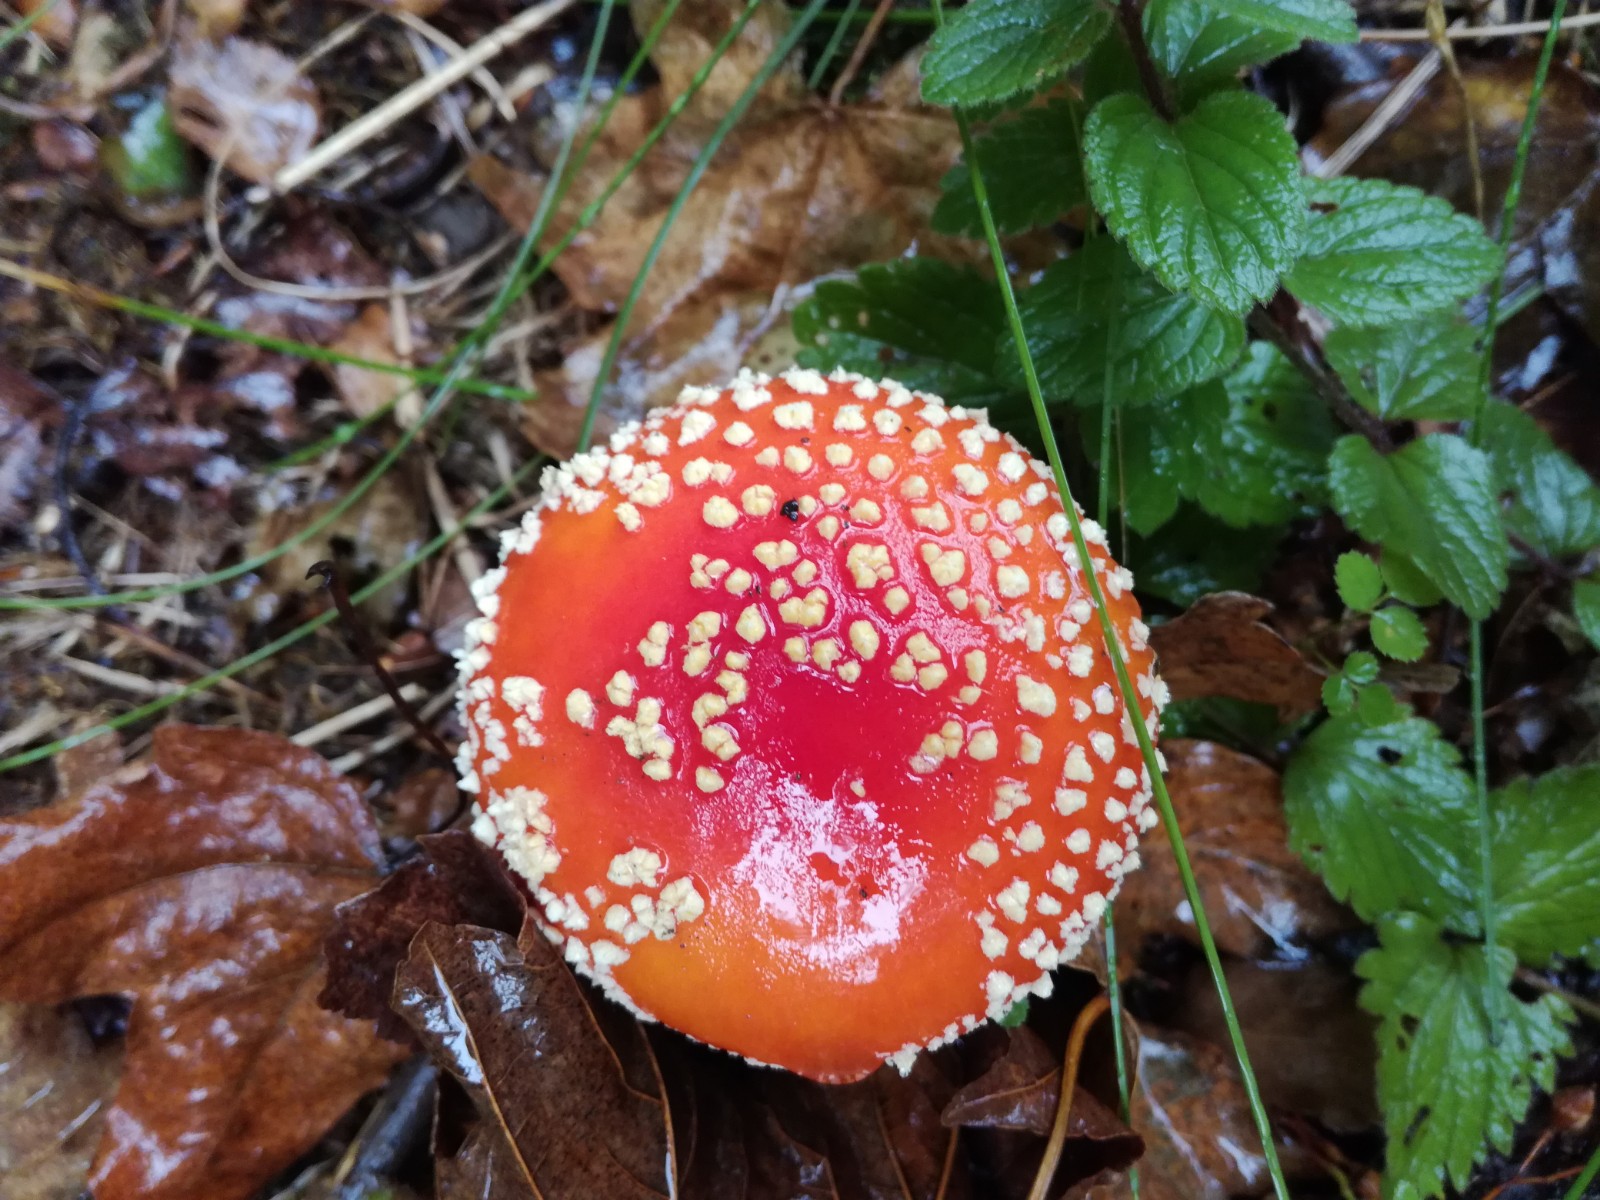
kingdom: Fungi
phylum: Basidiomycota
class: Agaricomycetes
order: Agaricales
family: Amanitaceae
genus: Amanita
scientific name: Amanita muscaria
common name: rød fluesvamp
